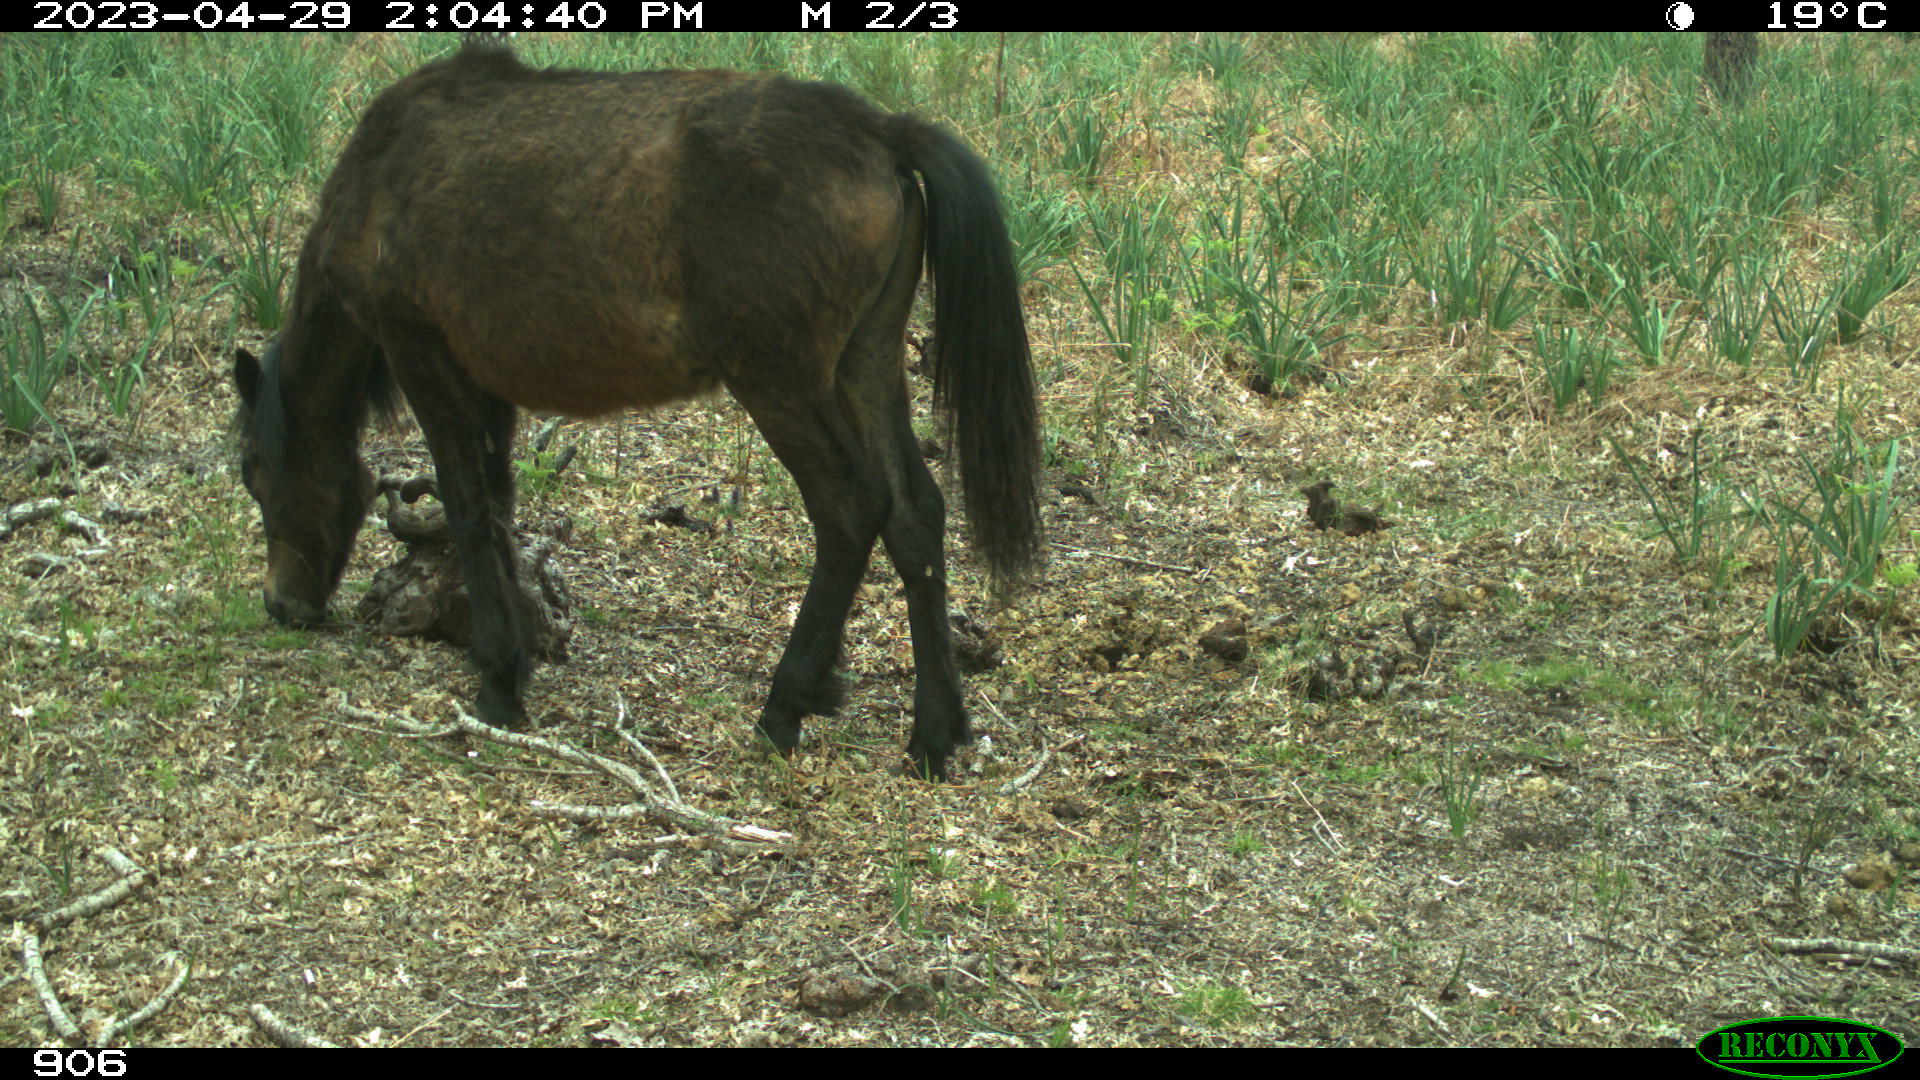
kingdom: Animalia
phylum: Chordata
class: Mammalia
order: Perissodactyla
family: Equidae
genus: Equus
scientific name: Equus caballus
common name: Horse
